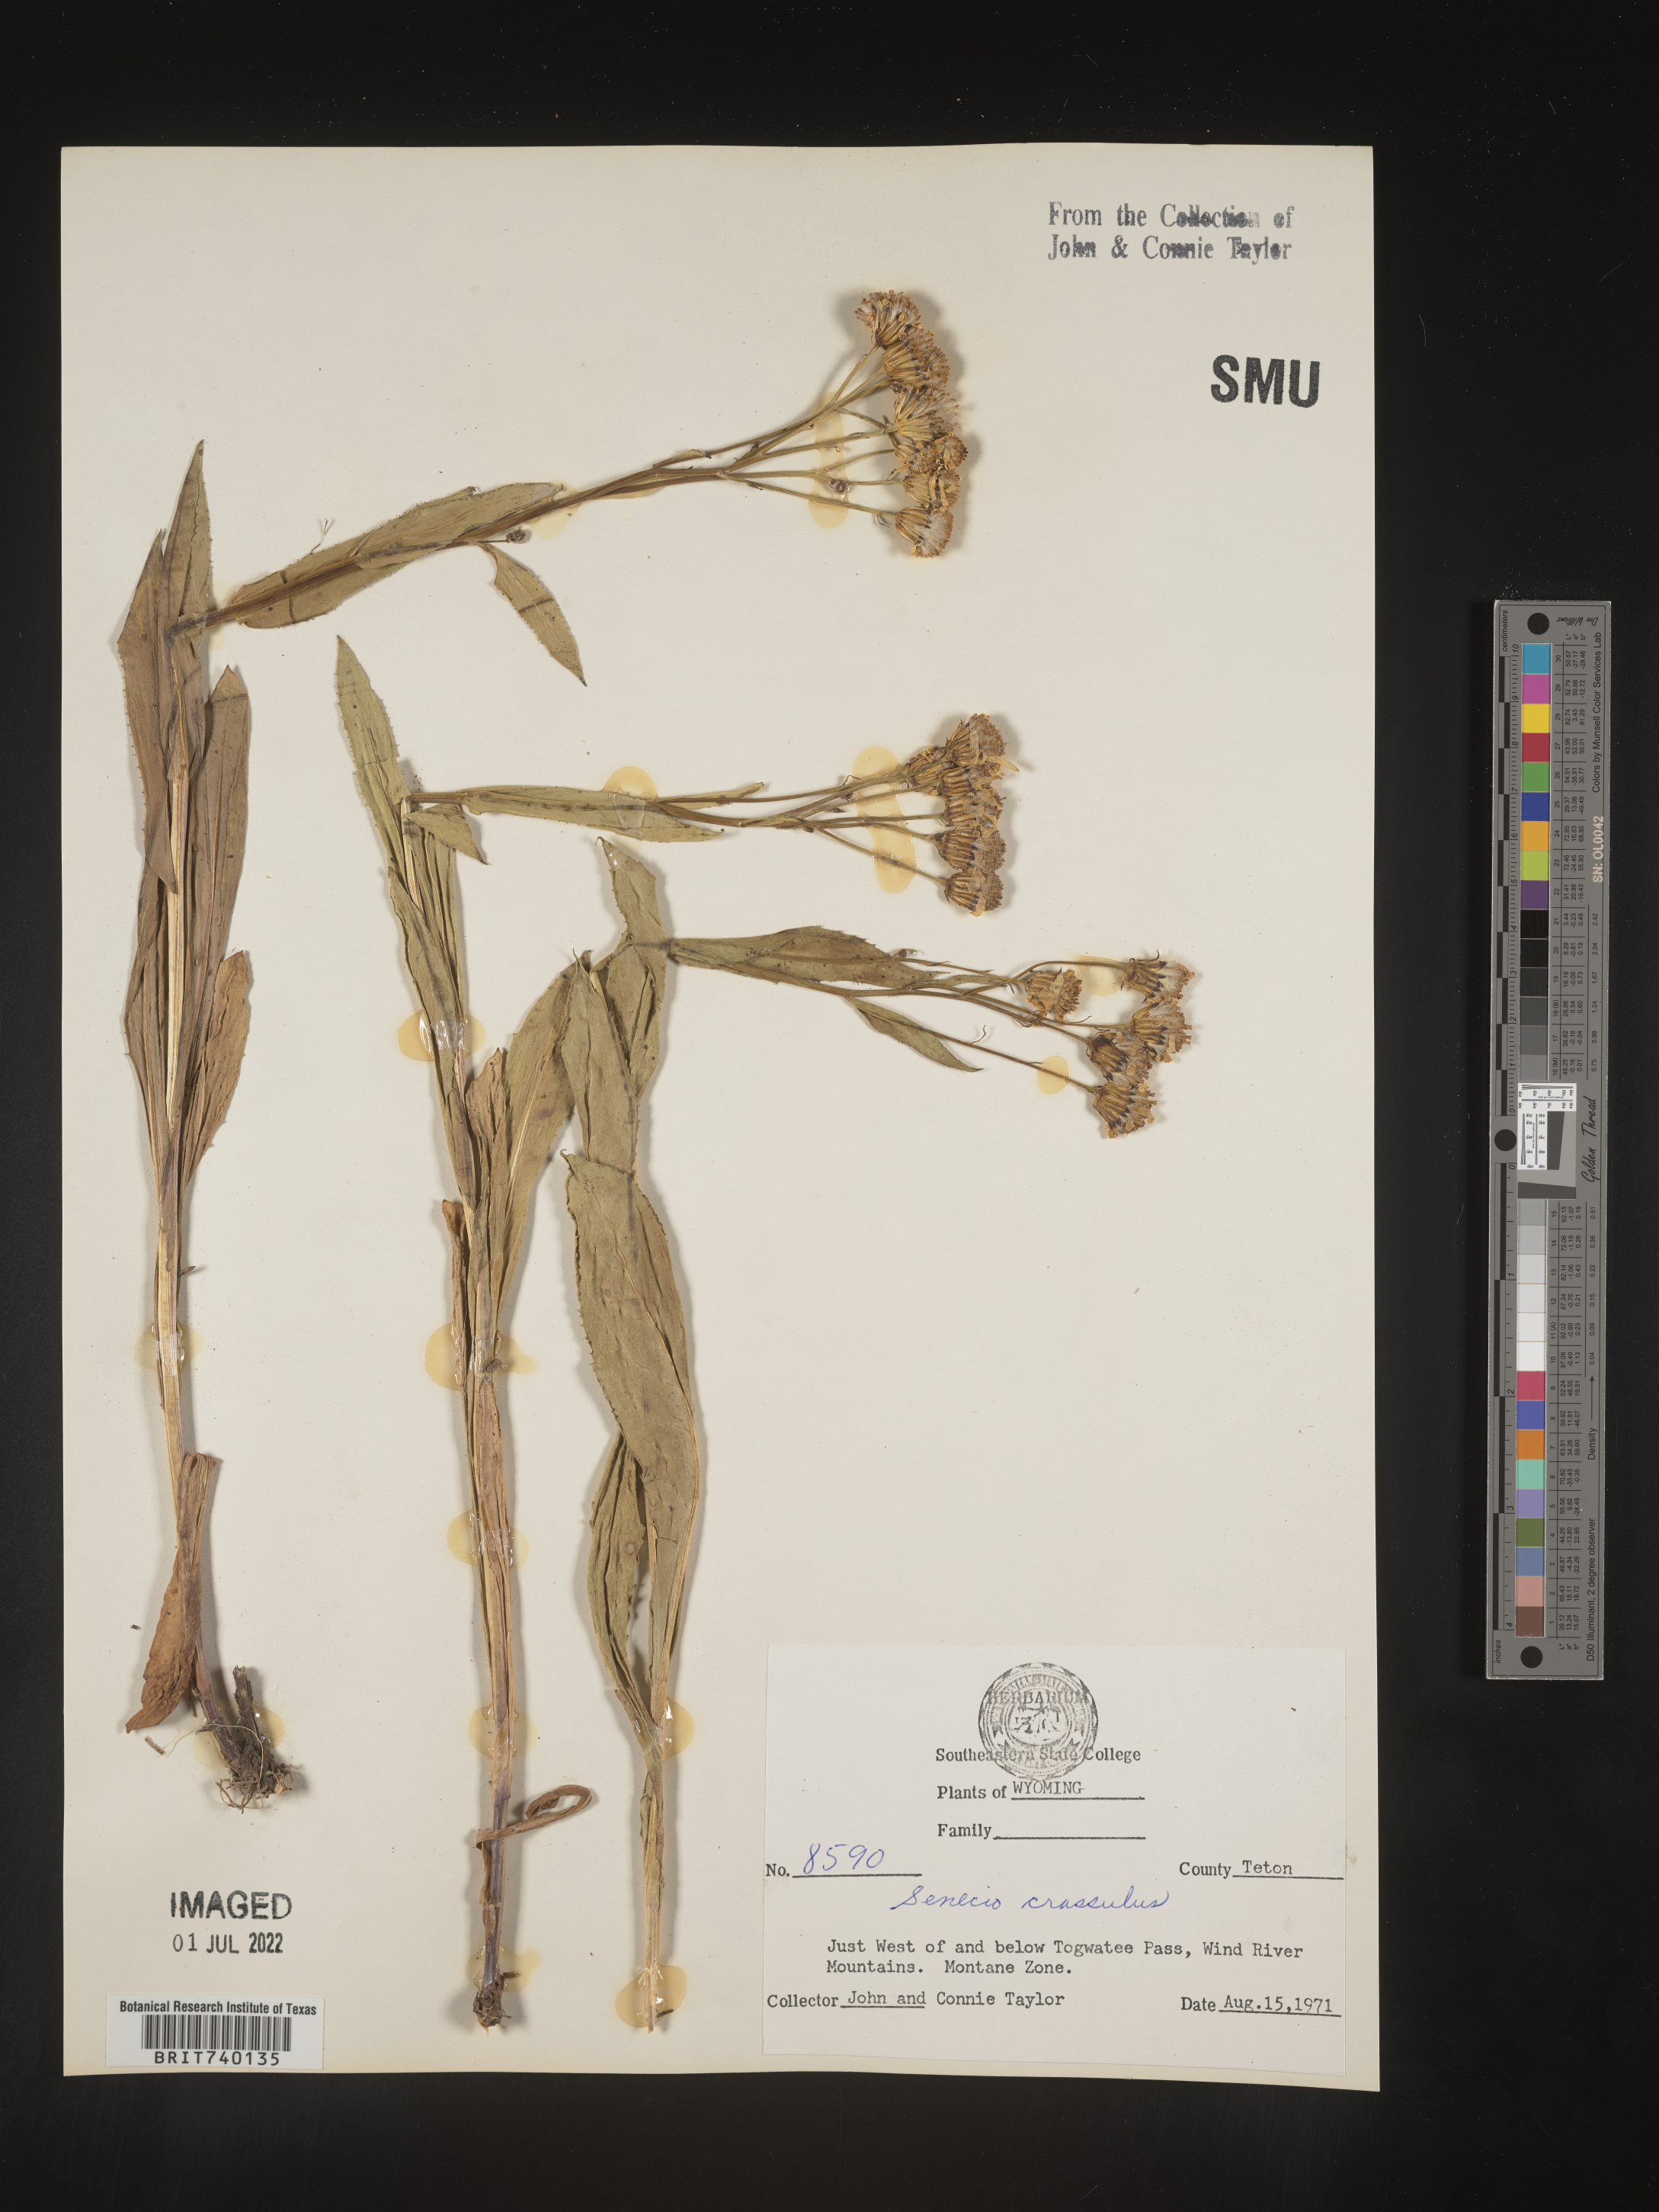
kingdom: Plantae
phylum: Tracheophyta
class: Magnoliopsida
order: Asterales
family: Asteraceae
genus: Senecio
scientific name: Senecio crassulus
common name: Mountain-meadow butterweed
